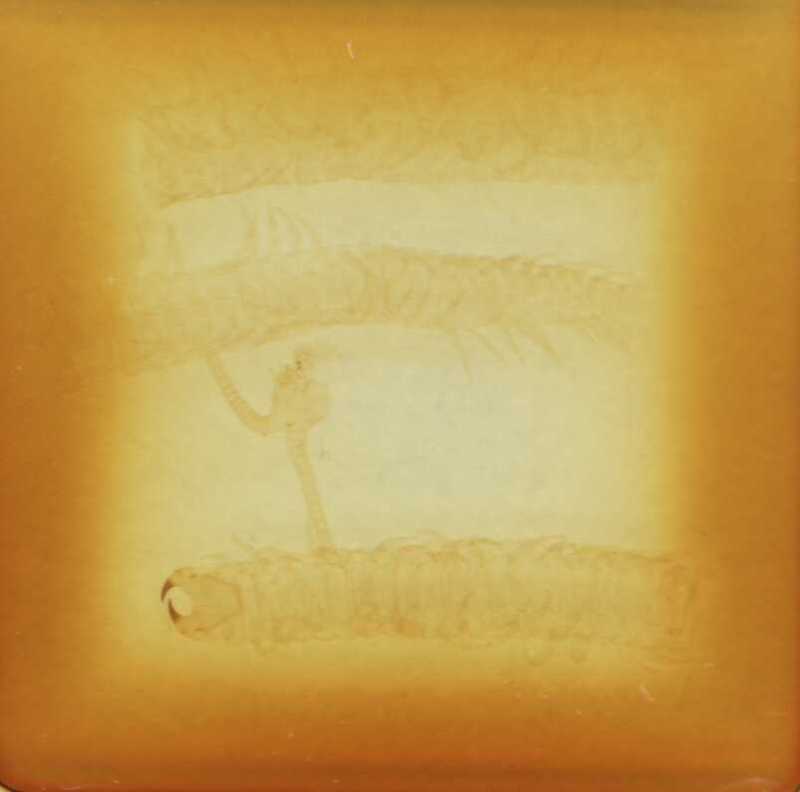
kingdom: Animalia
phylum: Arthropoda
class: Chilopoda
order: Geophilomorpha
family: Oryidae
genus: Venezuelides
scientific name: Venezuelides
